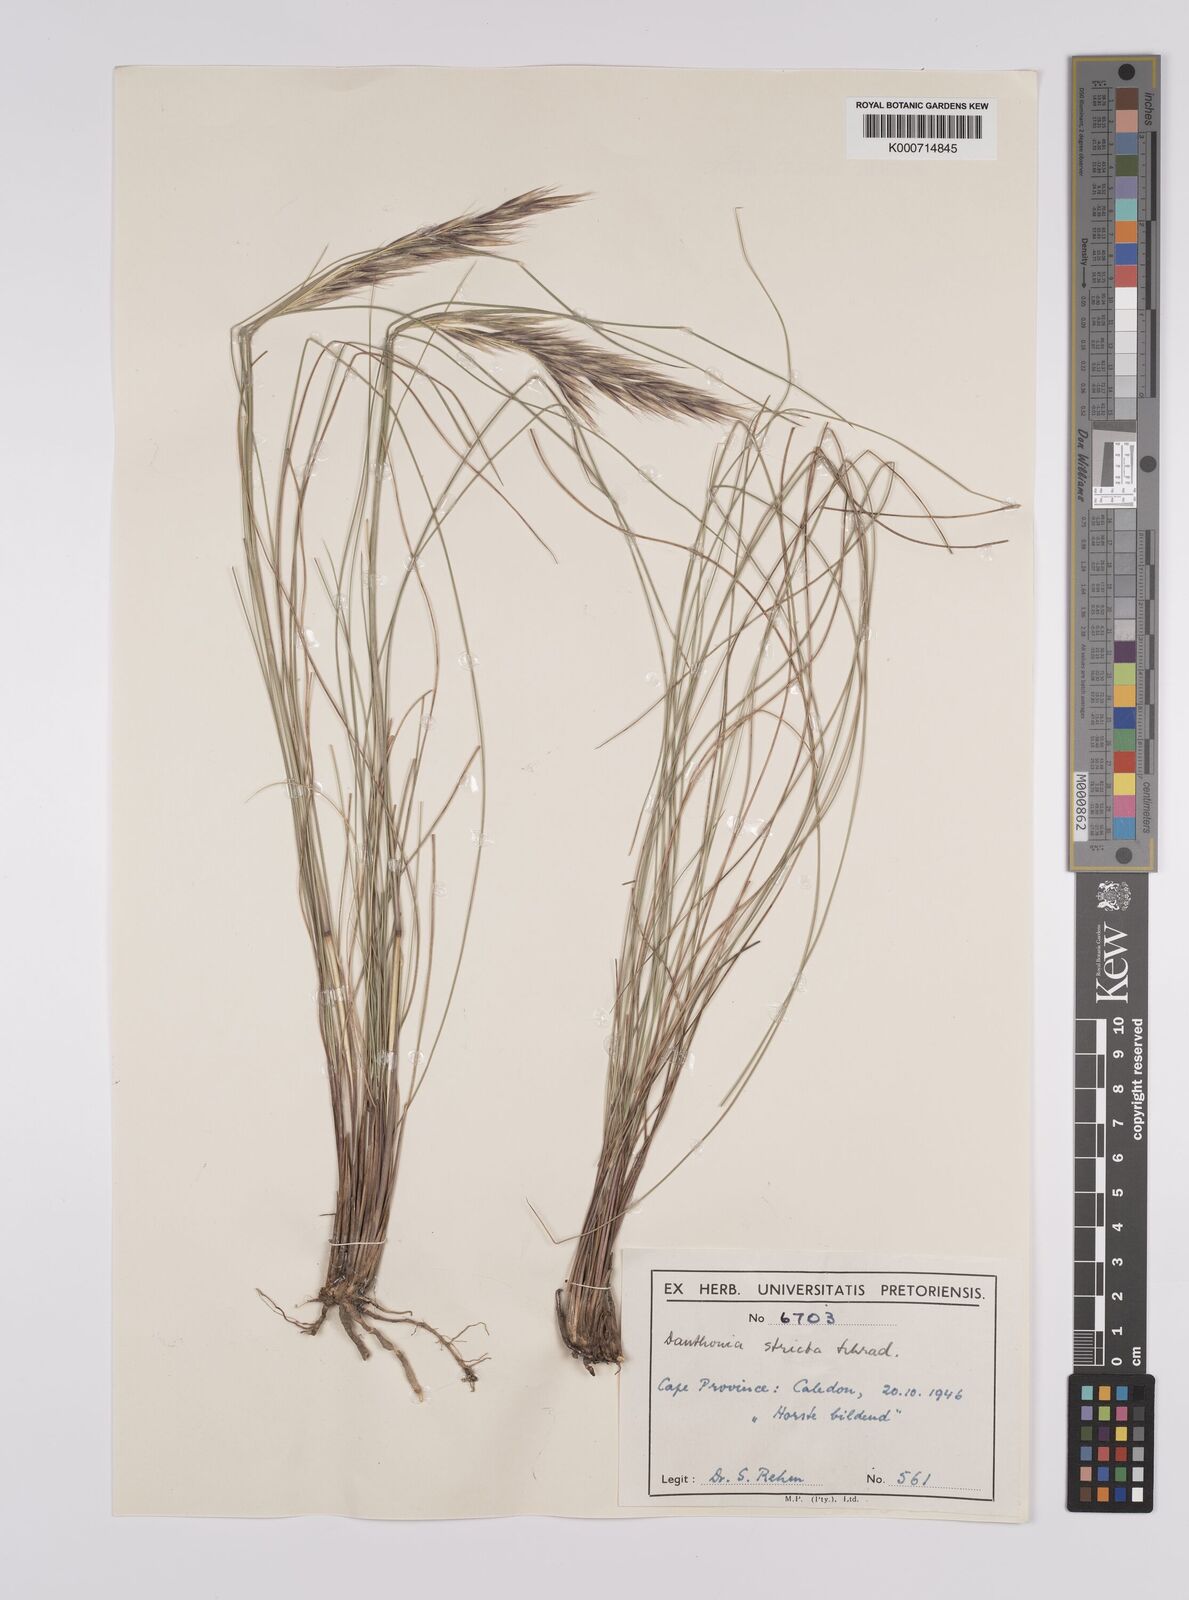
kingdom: Plantae
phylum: Tracheophyta
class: Liliopsida
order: Poales
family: Poaceae
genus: Rytidosperma
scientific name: Rytidosperma
